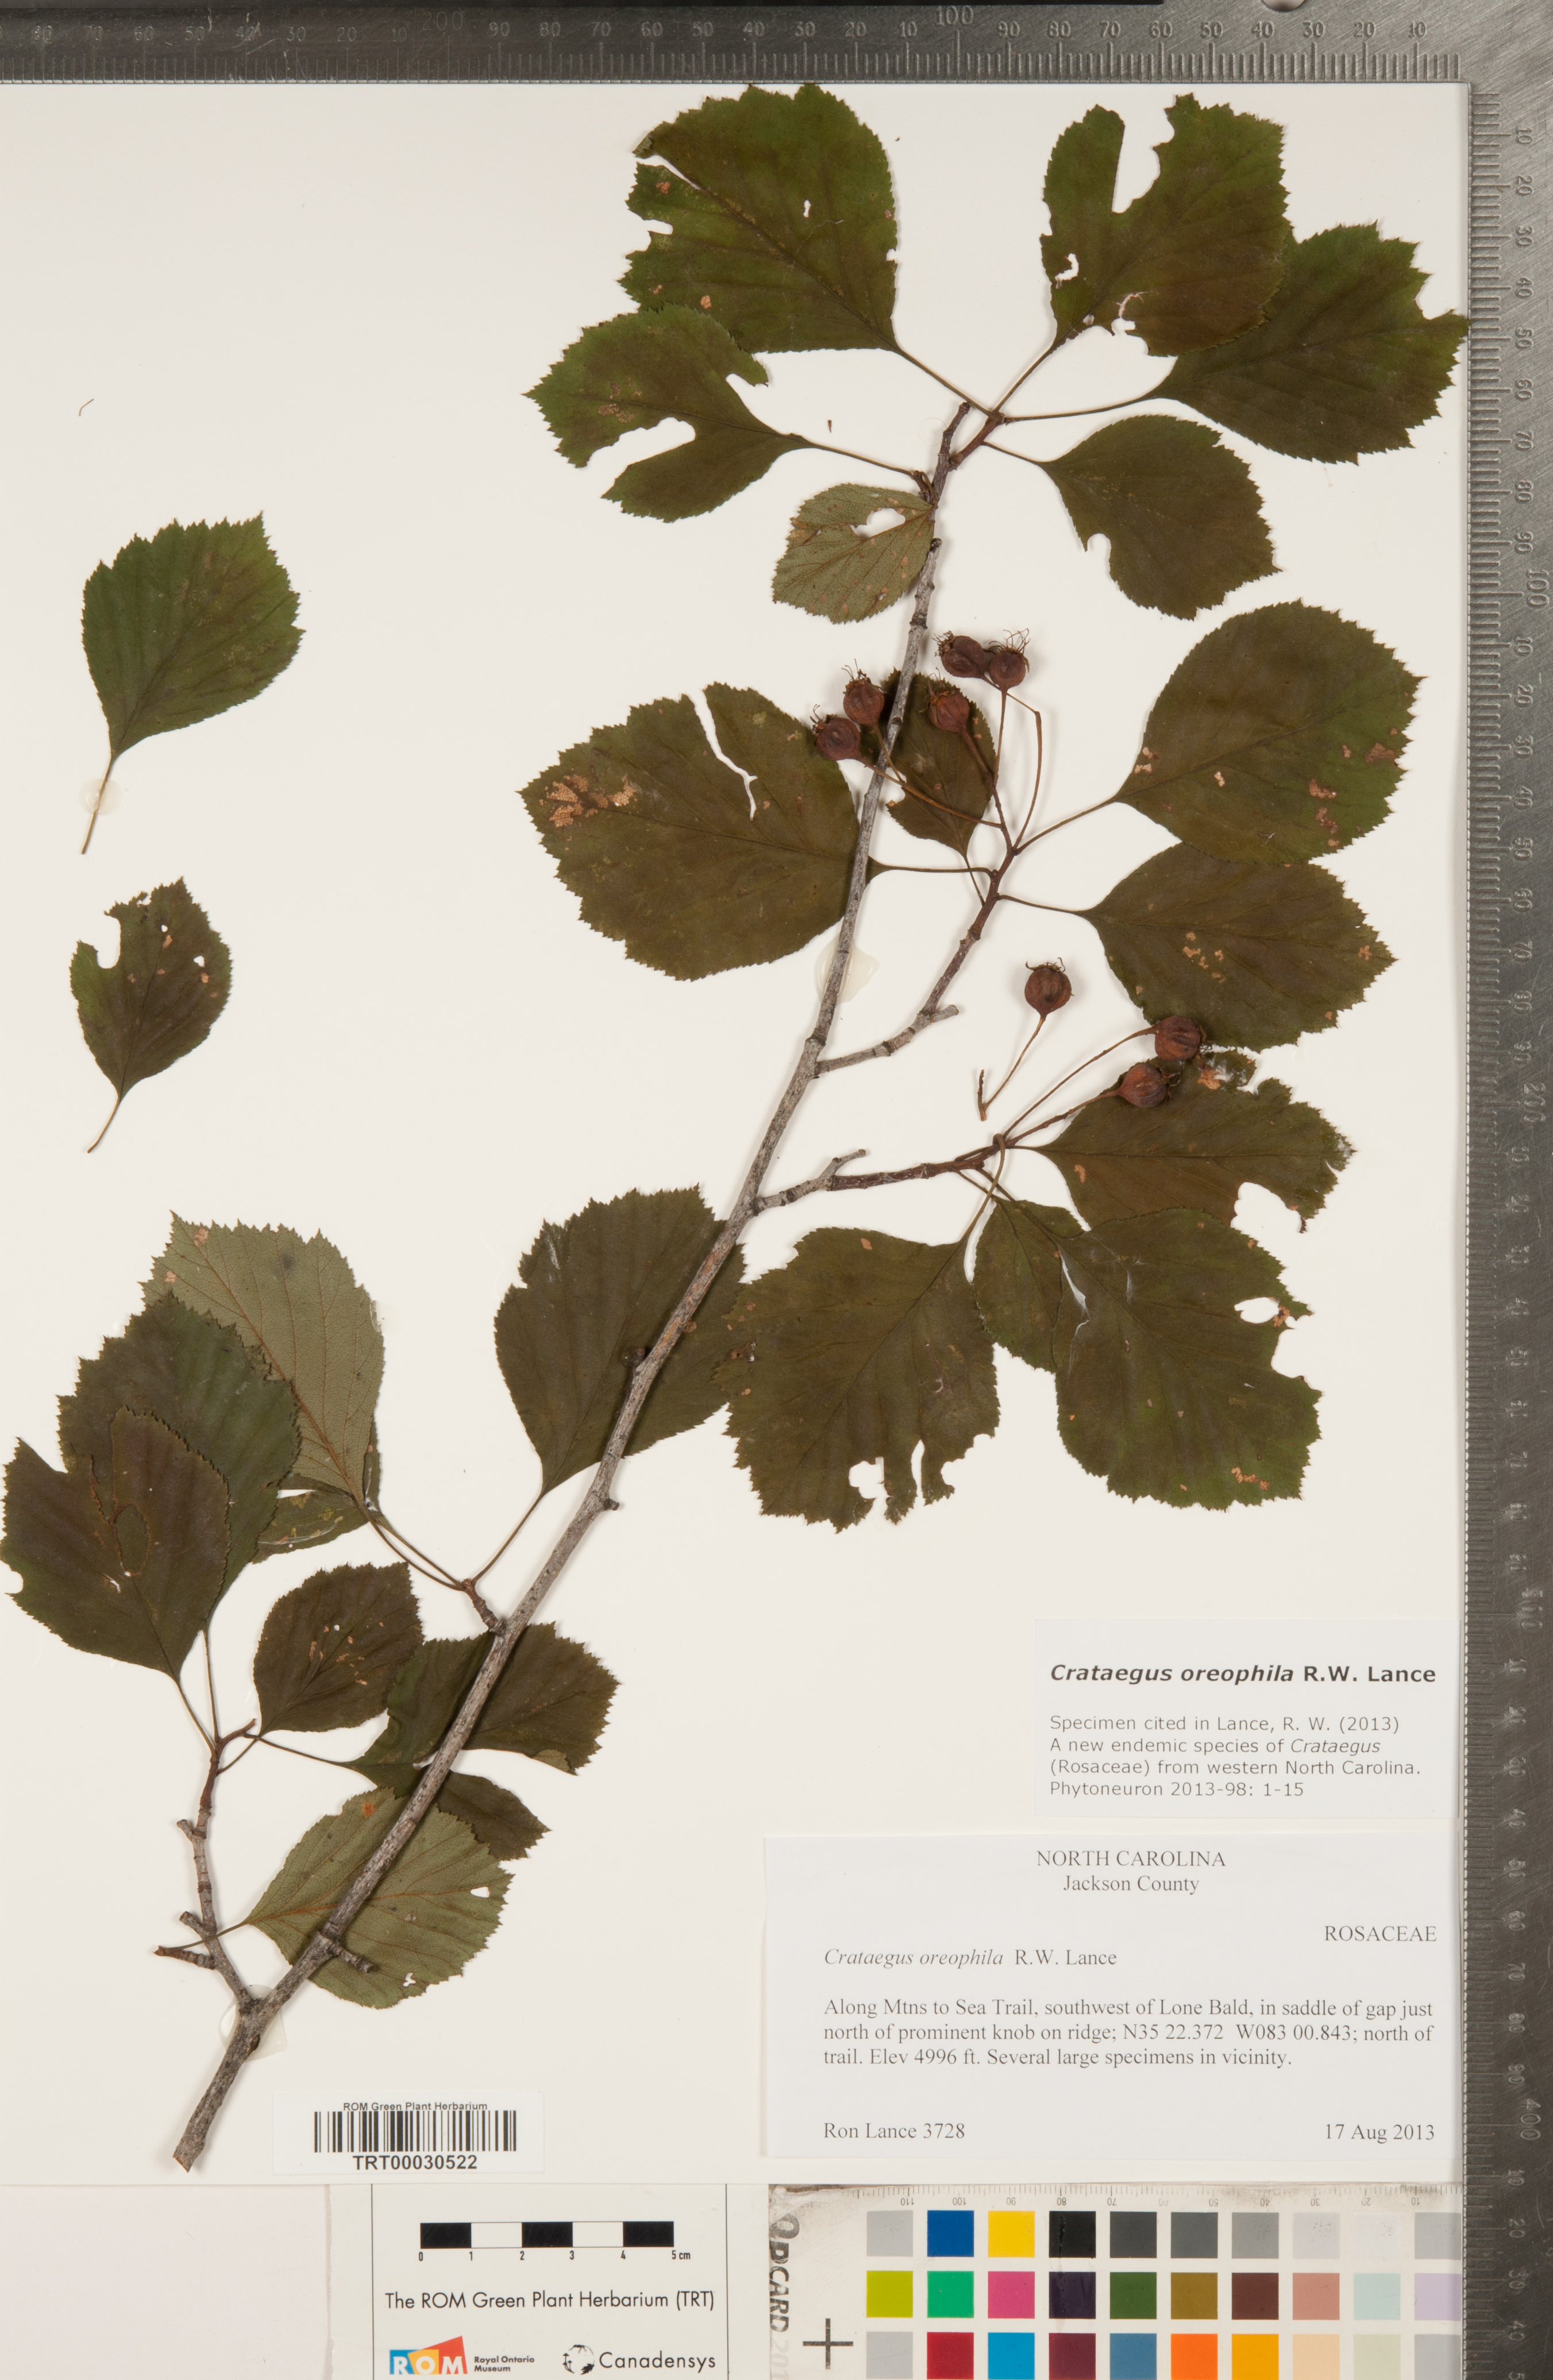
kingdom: Plantae
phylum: Tracheophyta
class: Magnoliopsida
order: Rosales
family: Rosaceae
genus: Crataegus
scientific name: Crataegus oreophila
